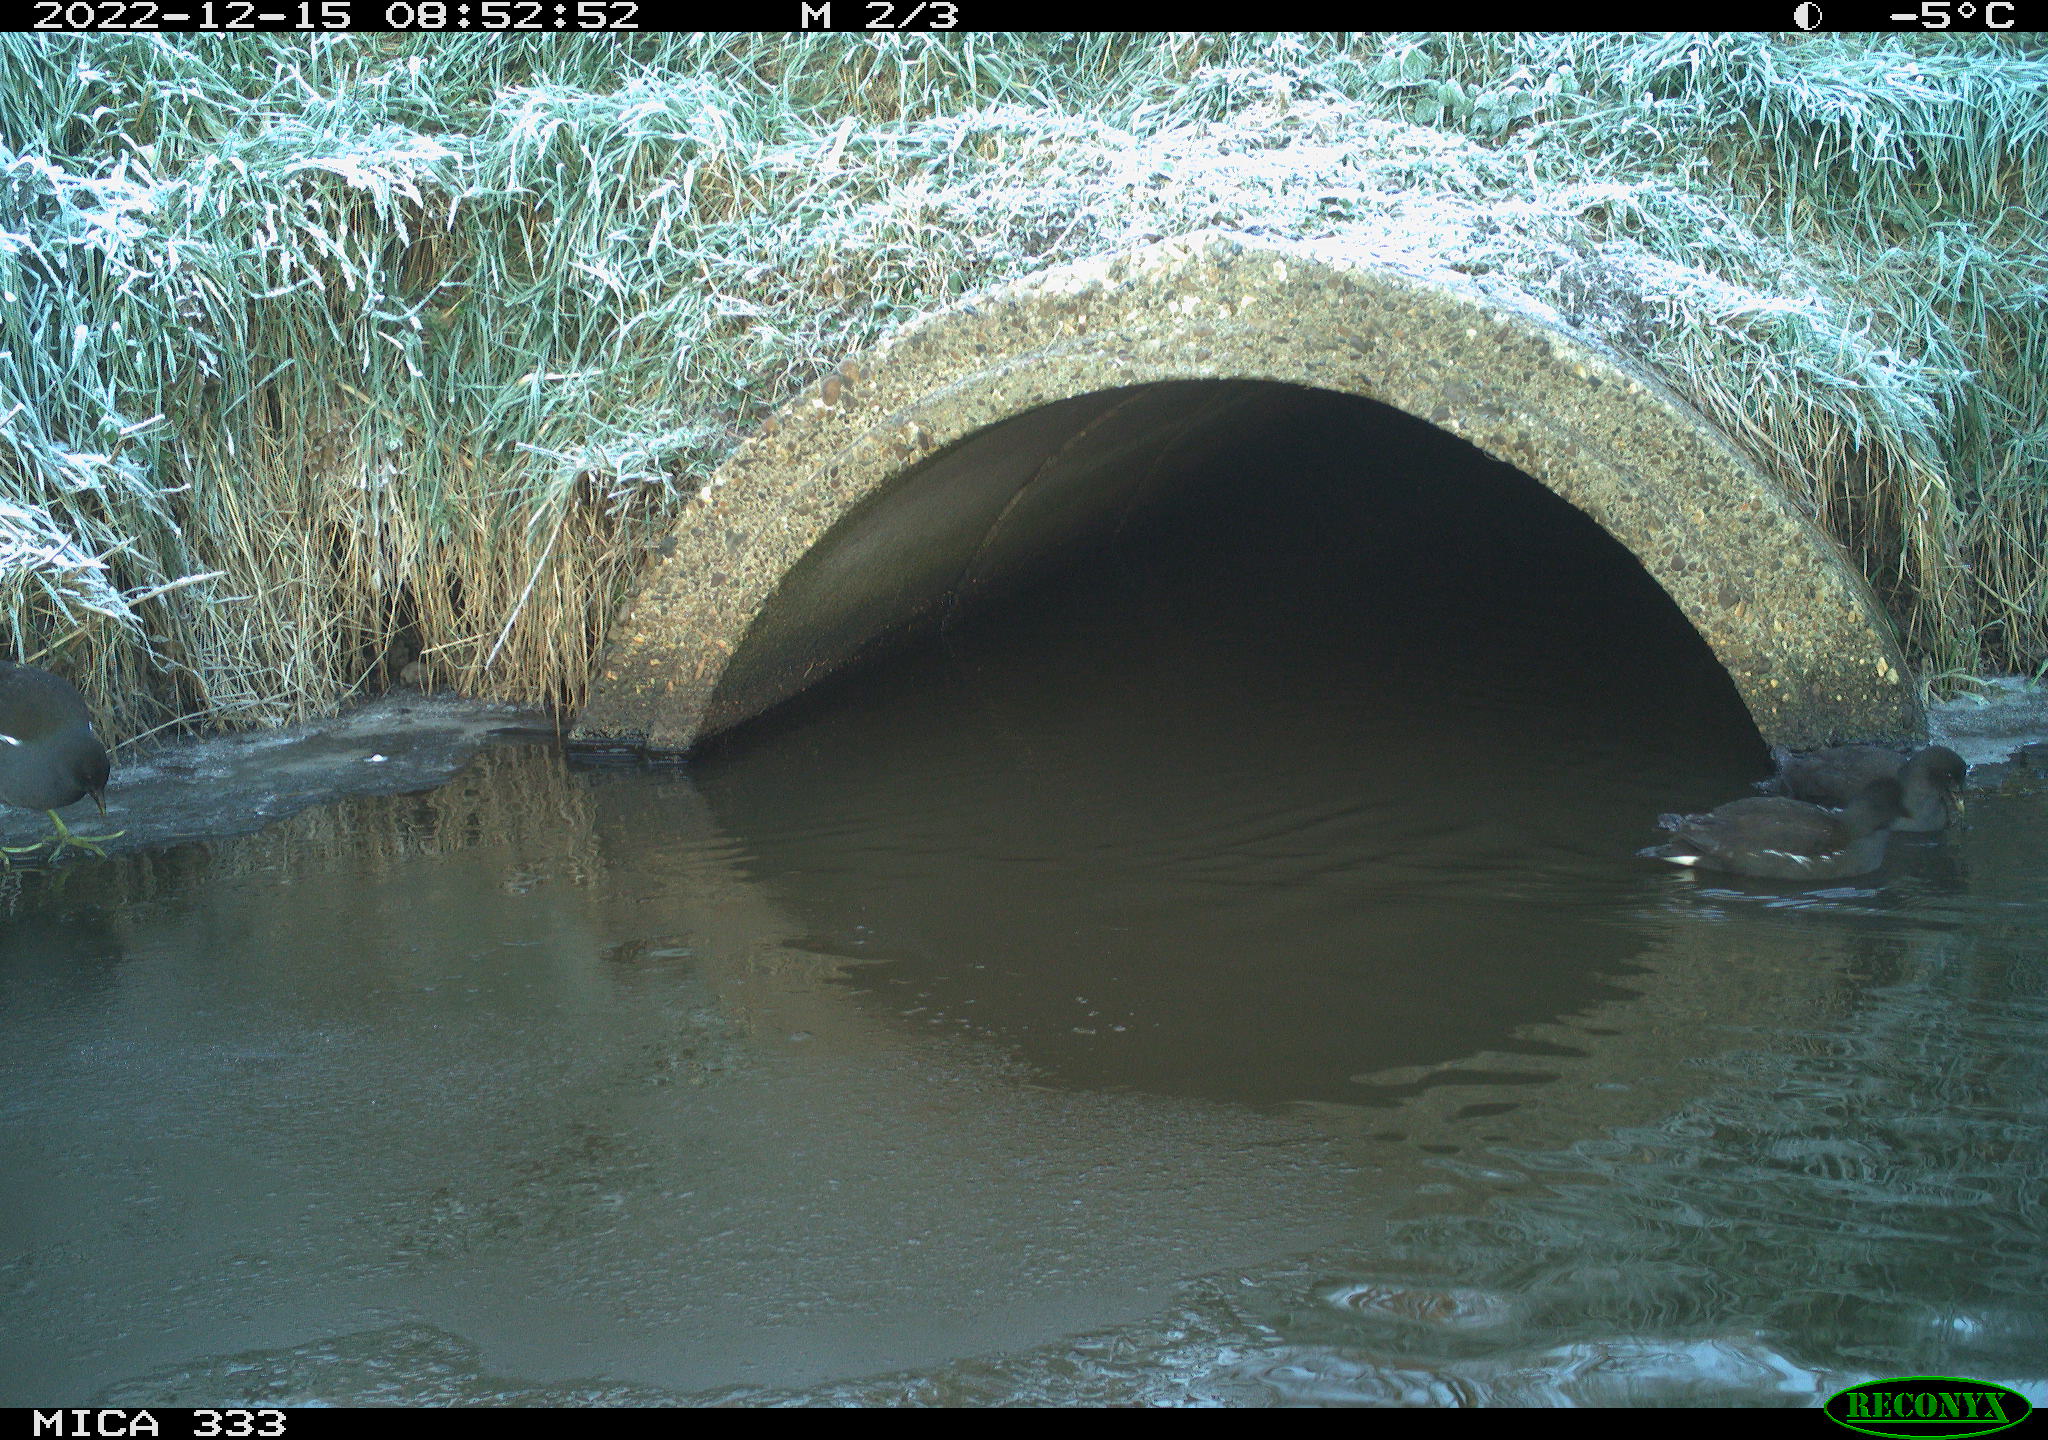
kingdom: Animalia
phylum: Chordata
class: Aves
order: Gruiformes
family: Rallidae
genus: Gallinula
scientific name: Gallinula chloropus
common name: Common moorhen
